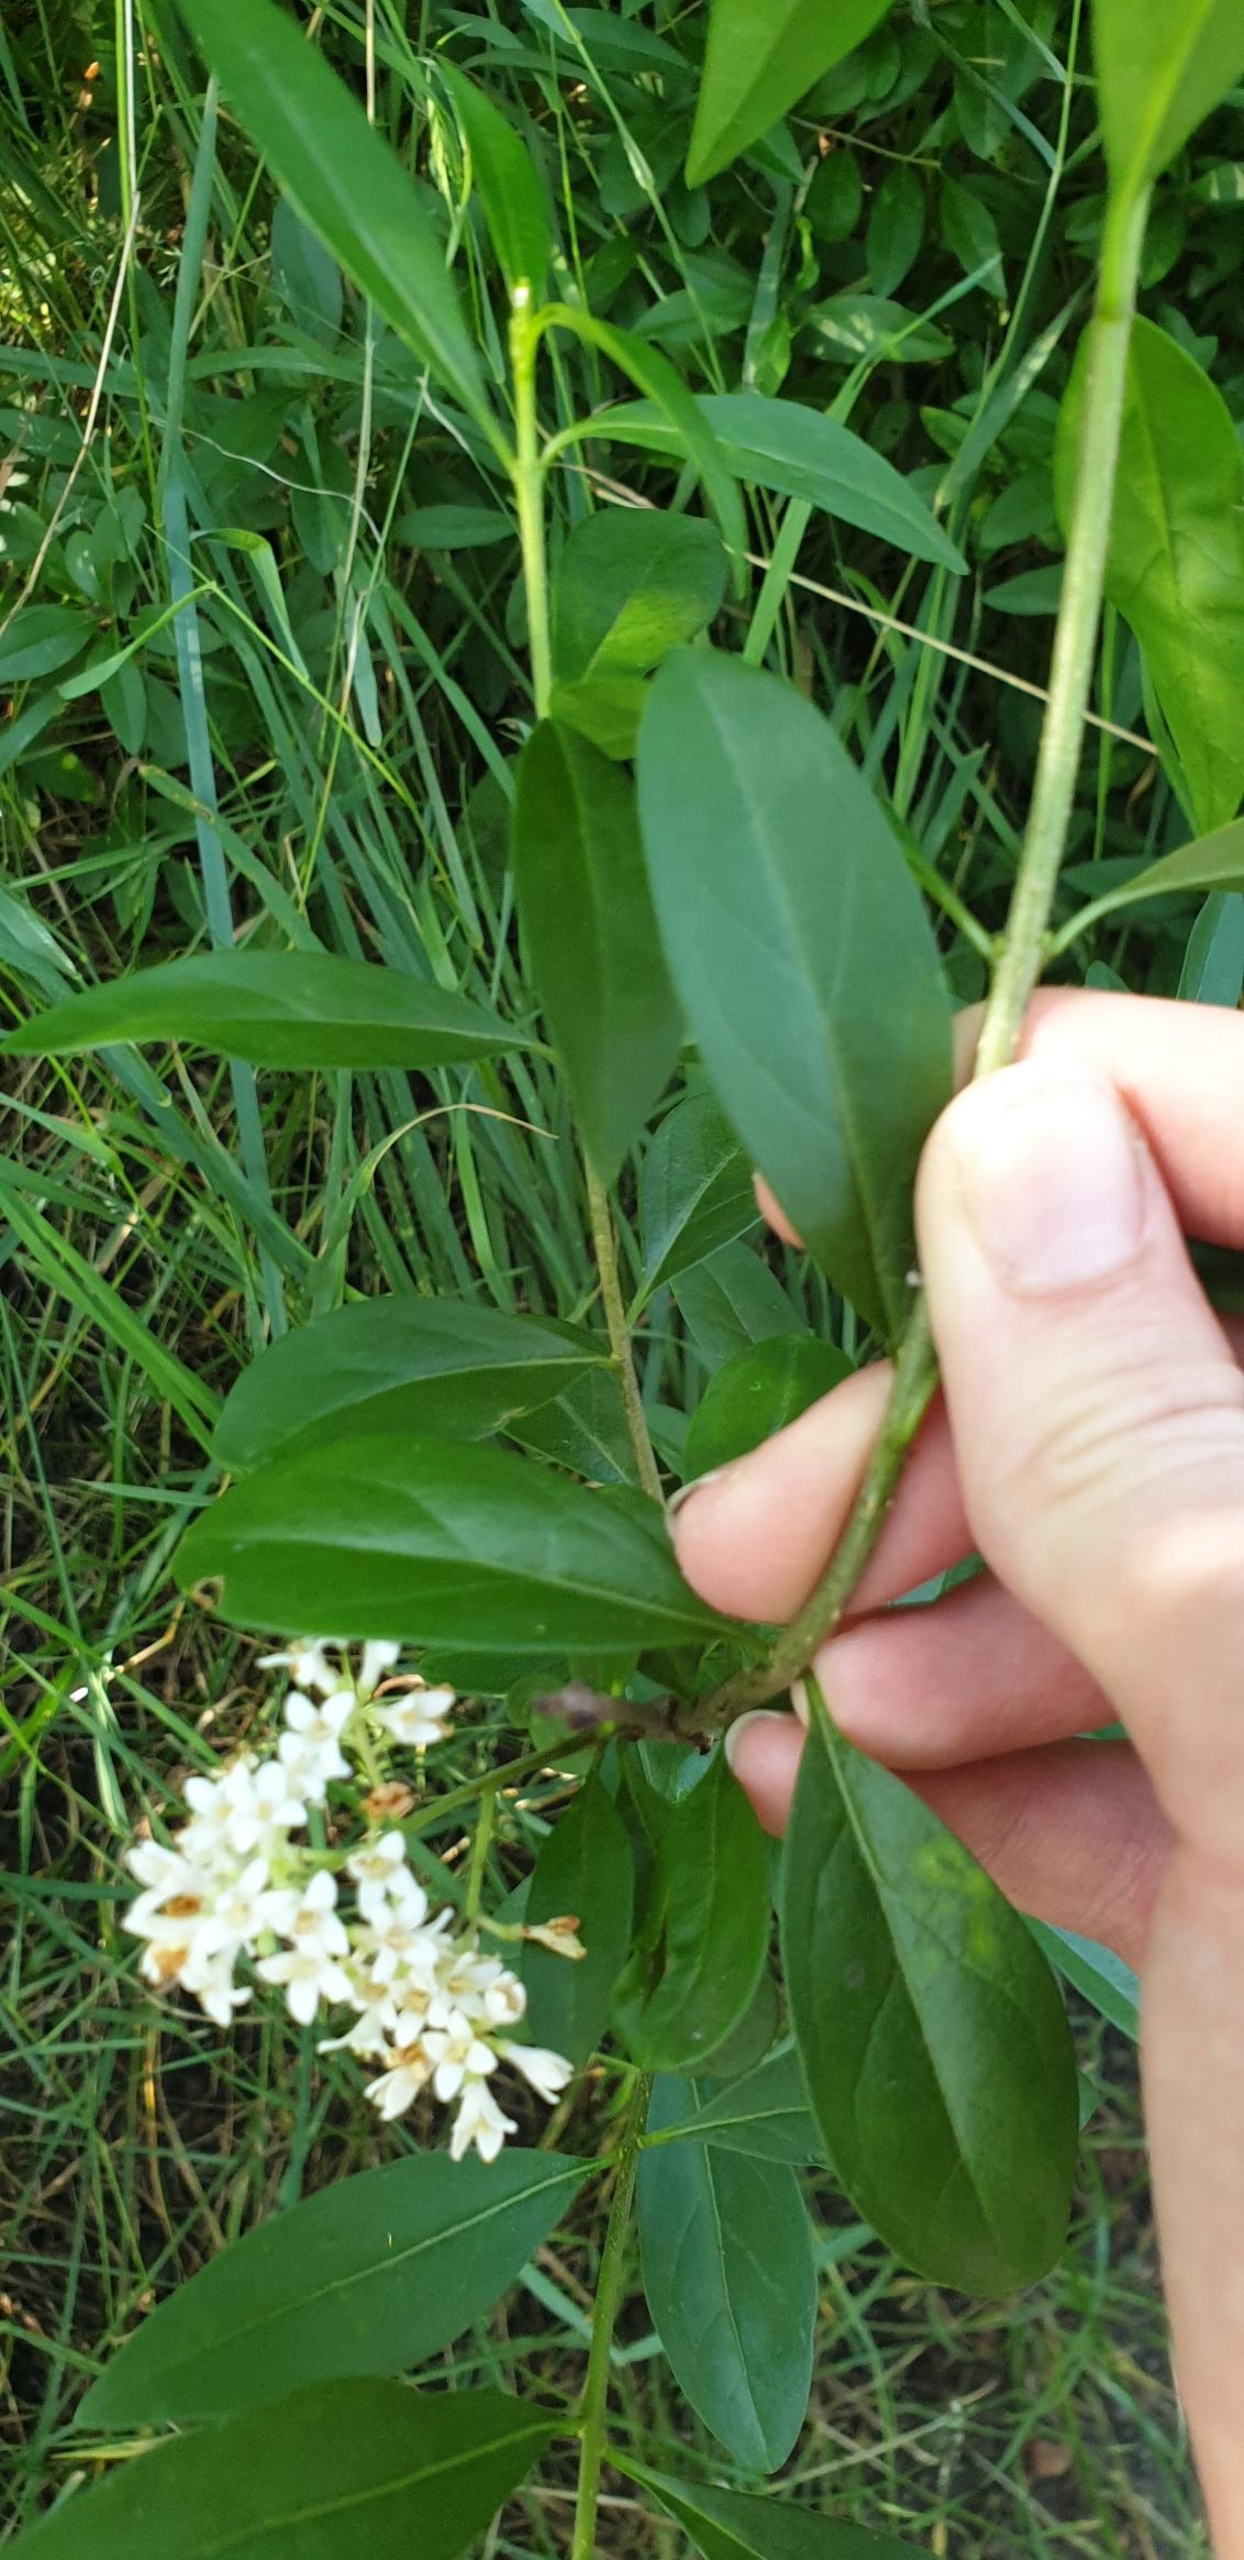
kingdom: Plantae
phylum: Tracheophyta
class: Magnoliopsida
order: Lamiales
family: Oleaceae
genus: Ligustrum
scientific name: Ligustrum vulgare
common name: Liguster
